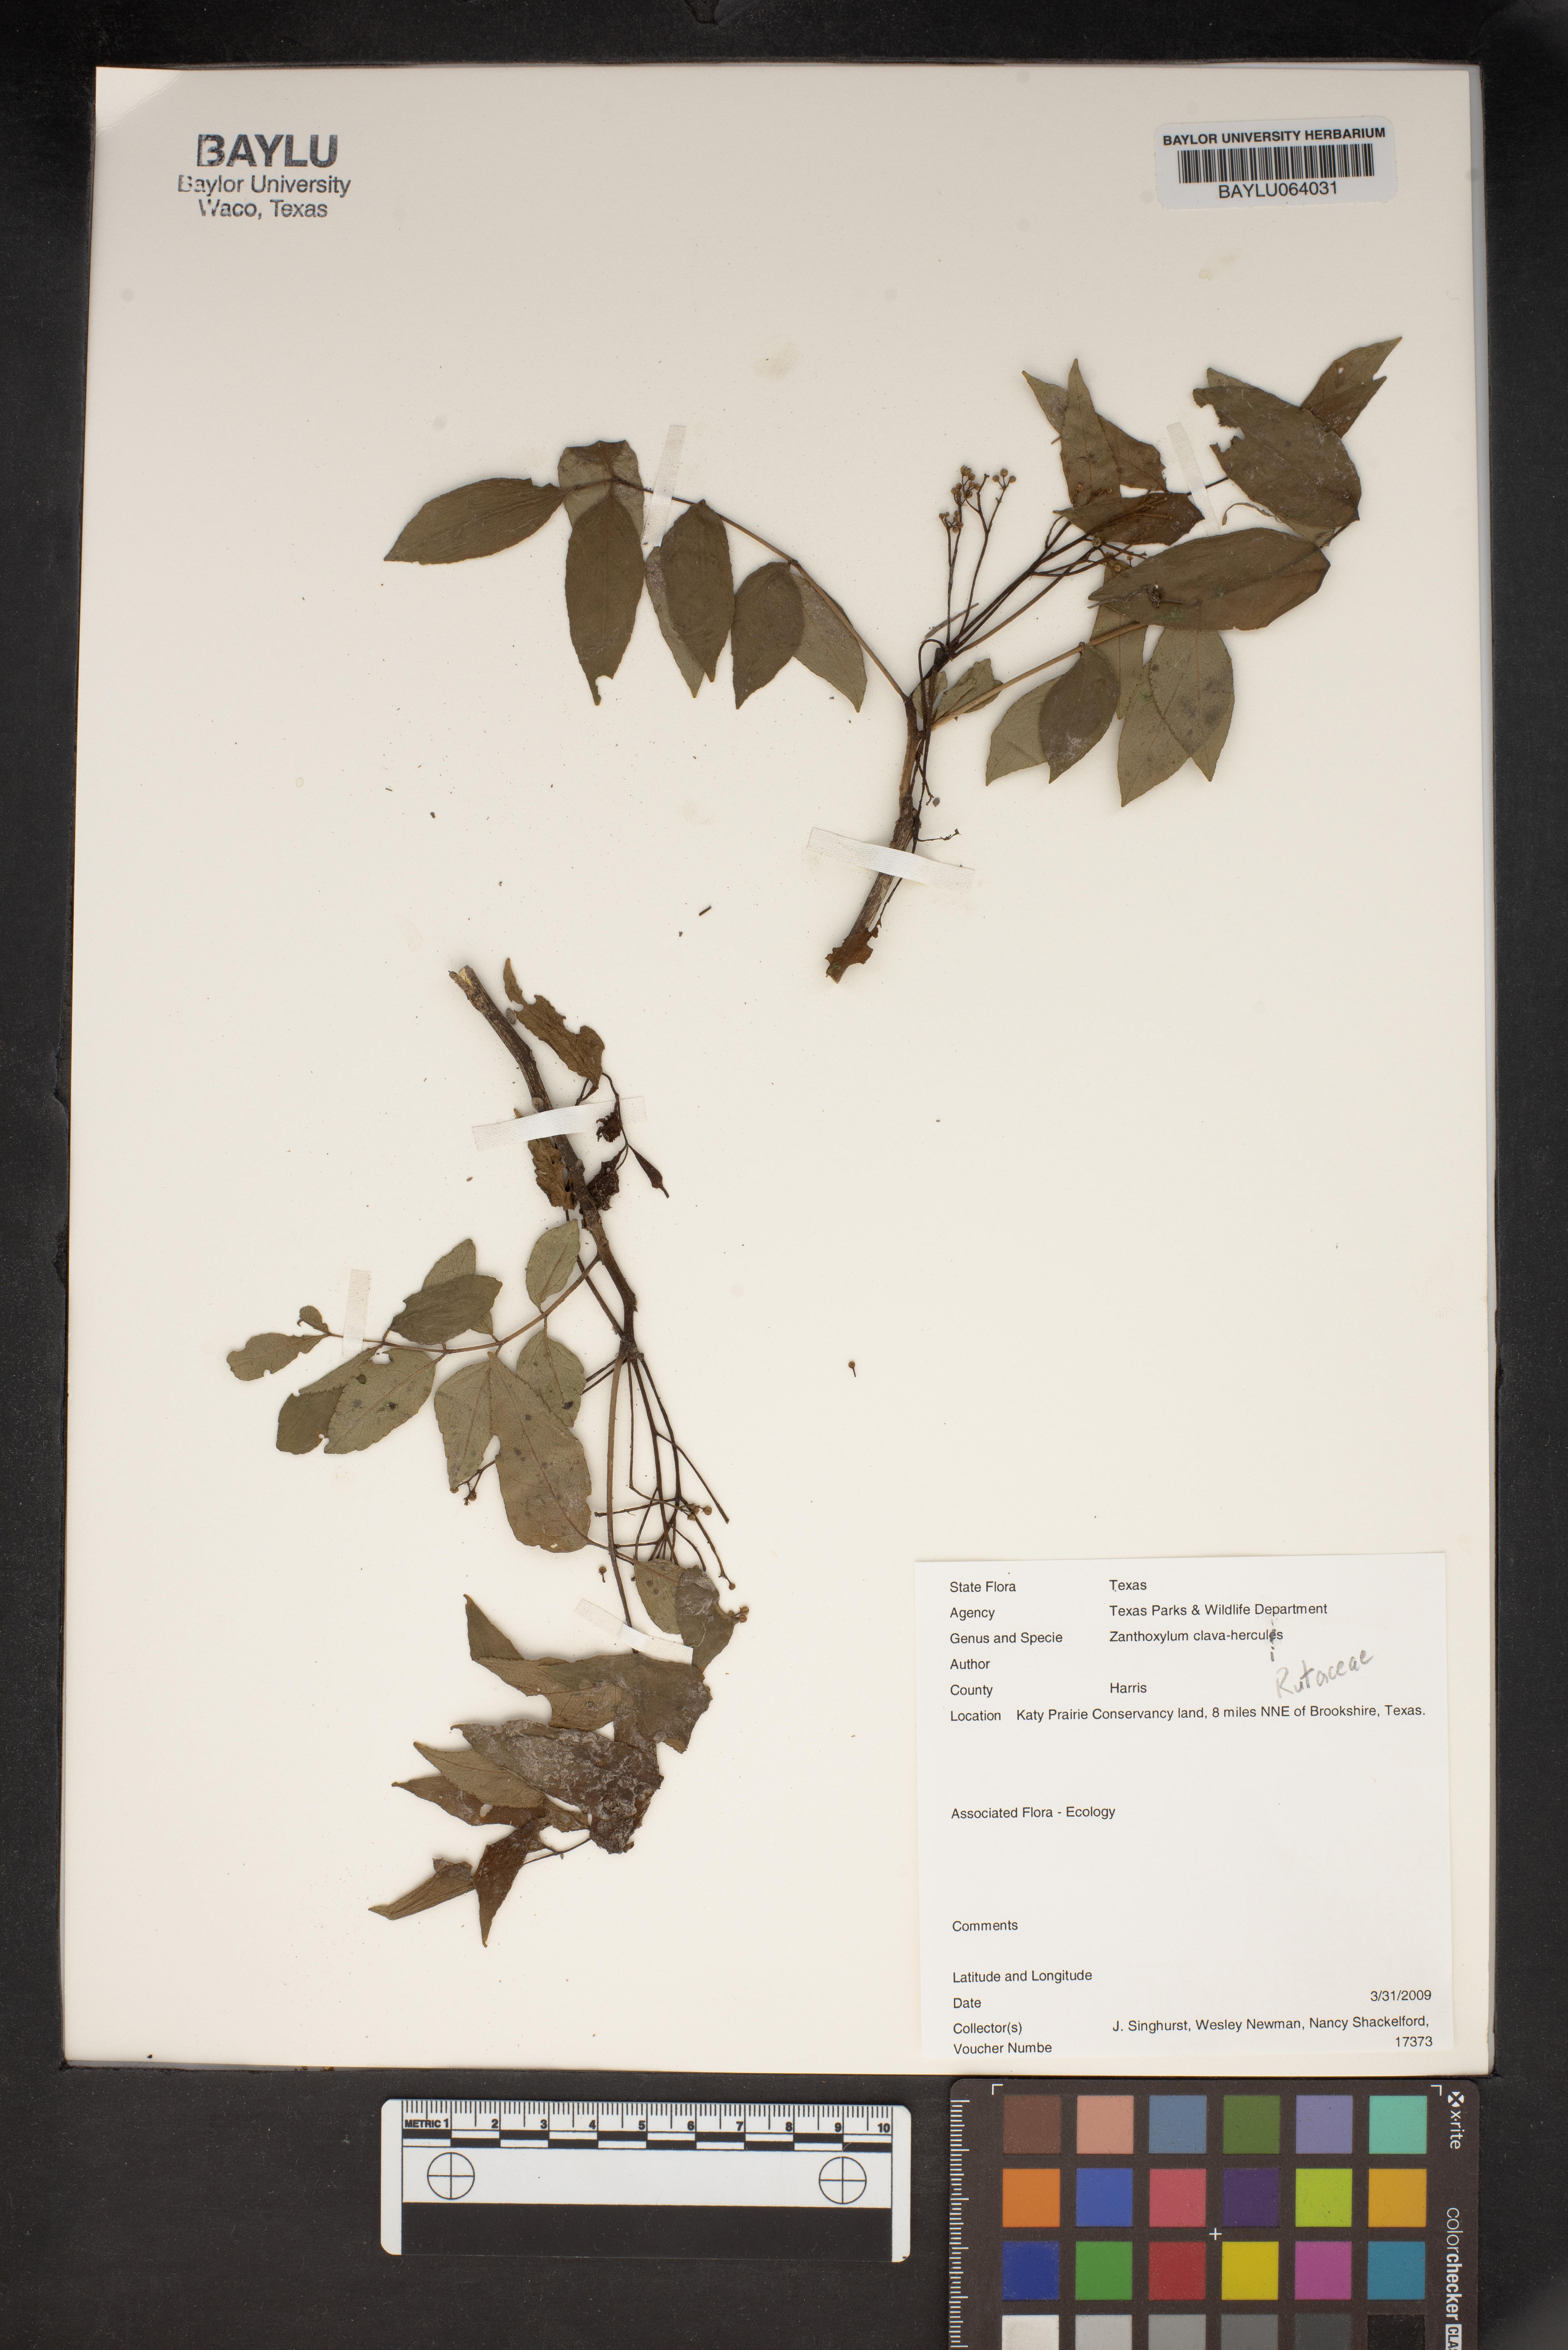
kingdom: Plantae
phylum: Tracheophyta
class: Magnoliopsida
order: Sapindales
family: Rutaceae
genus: Zanthoxylum
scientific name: Zanthoxylum avicennae
